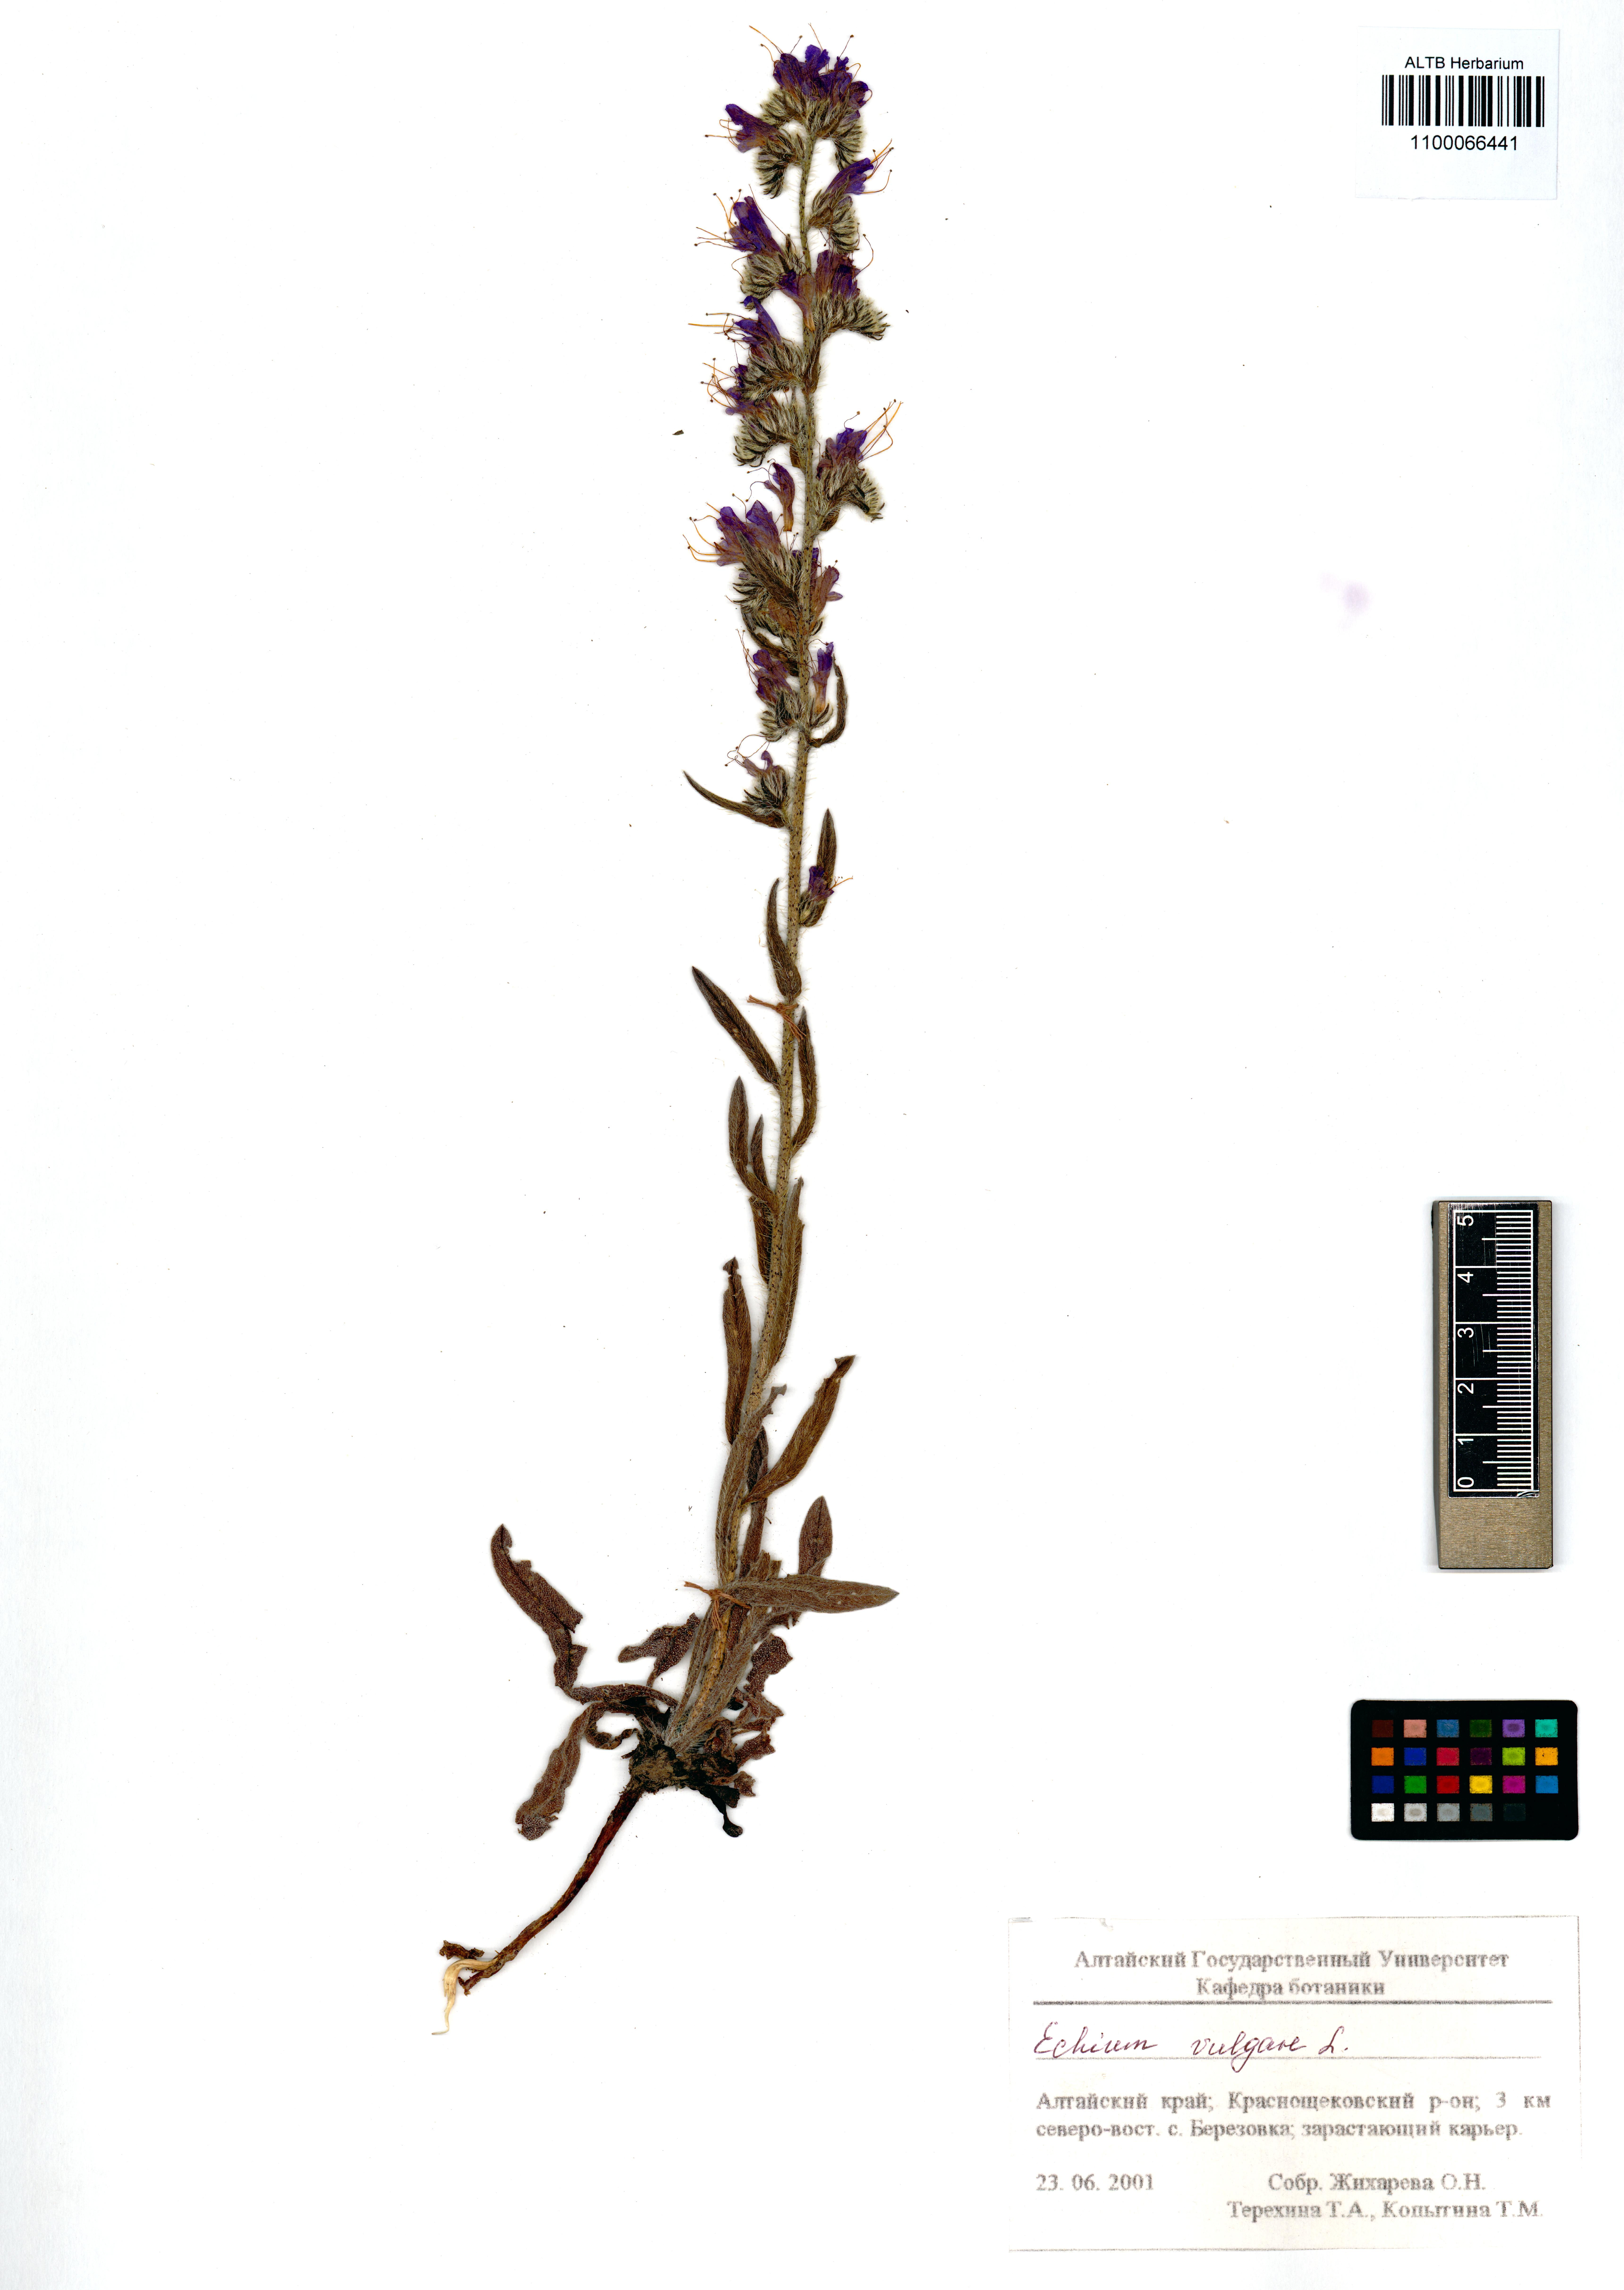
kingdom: Plantae
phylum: Tracheophyta
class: Magnoliopsida
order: Boraginales
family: Boraginaceae
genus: Echium
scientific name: Echium vulgare
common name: Common viper's bugloss
